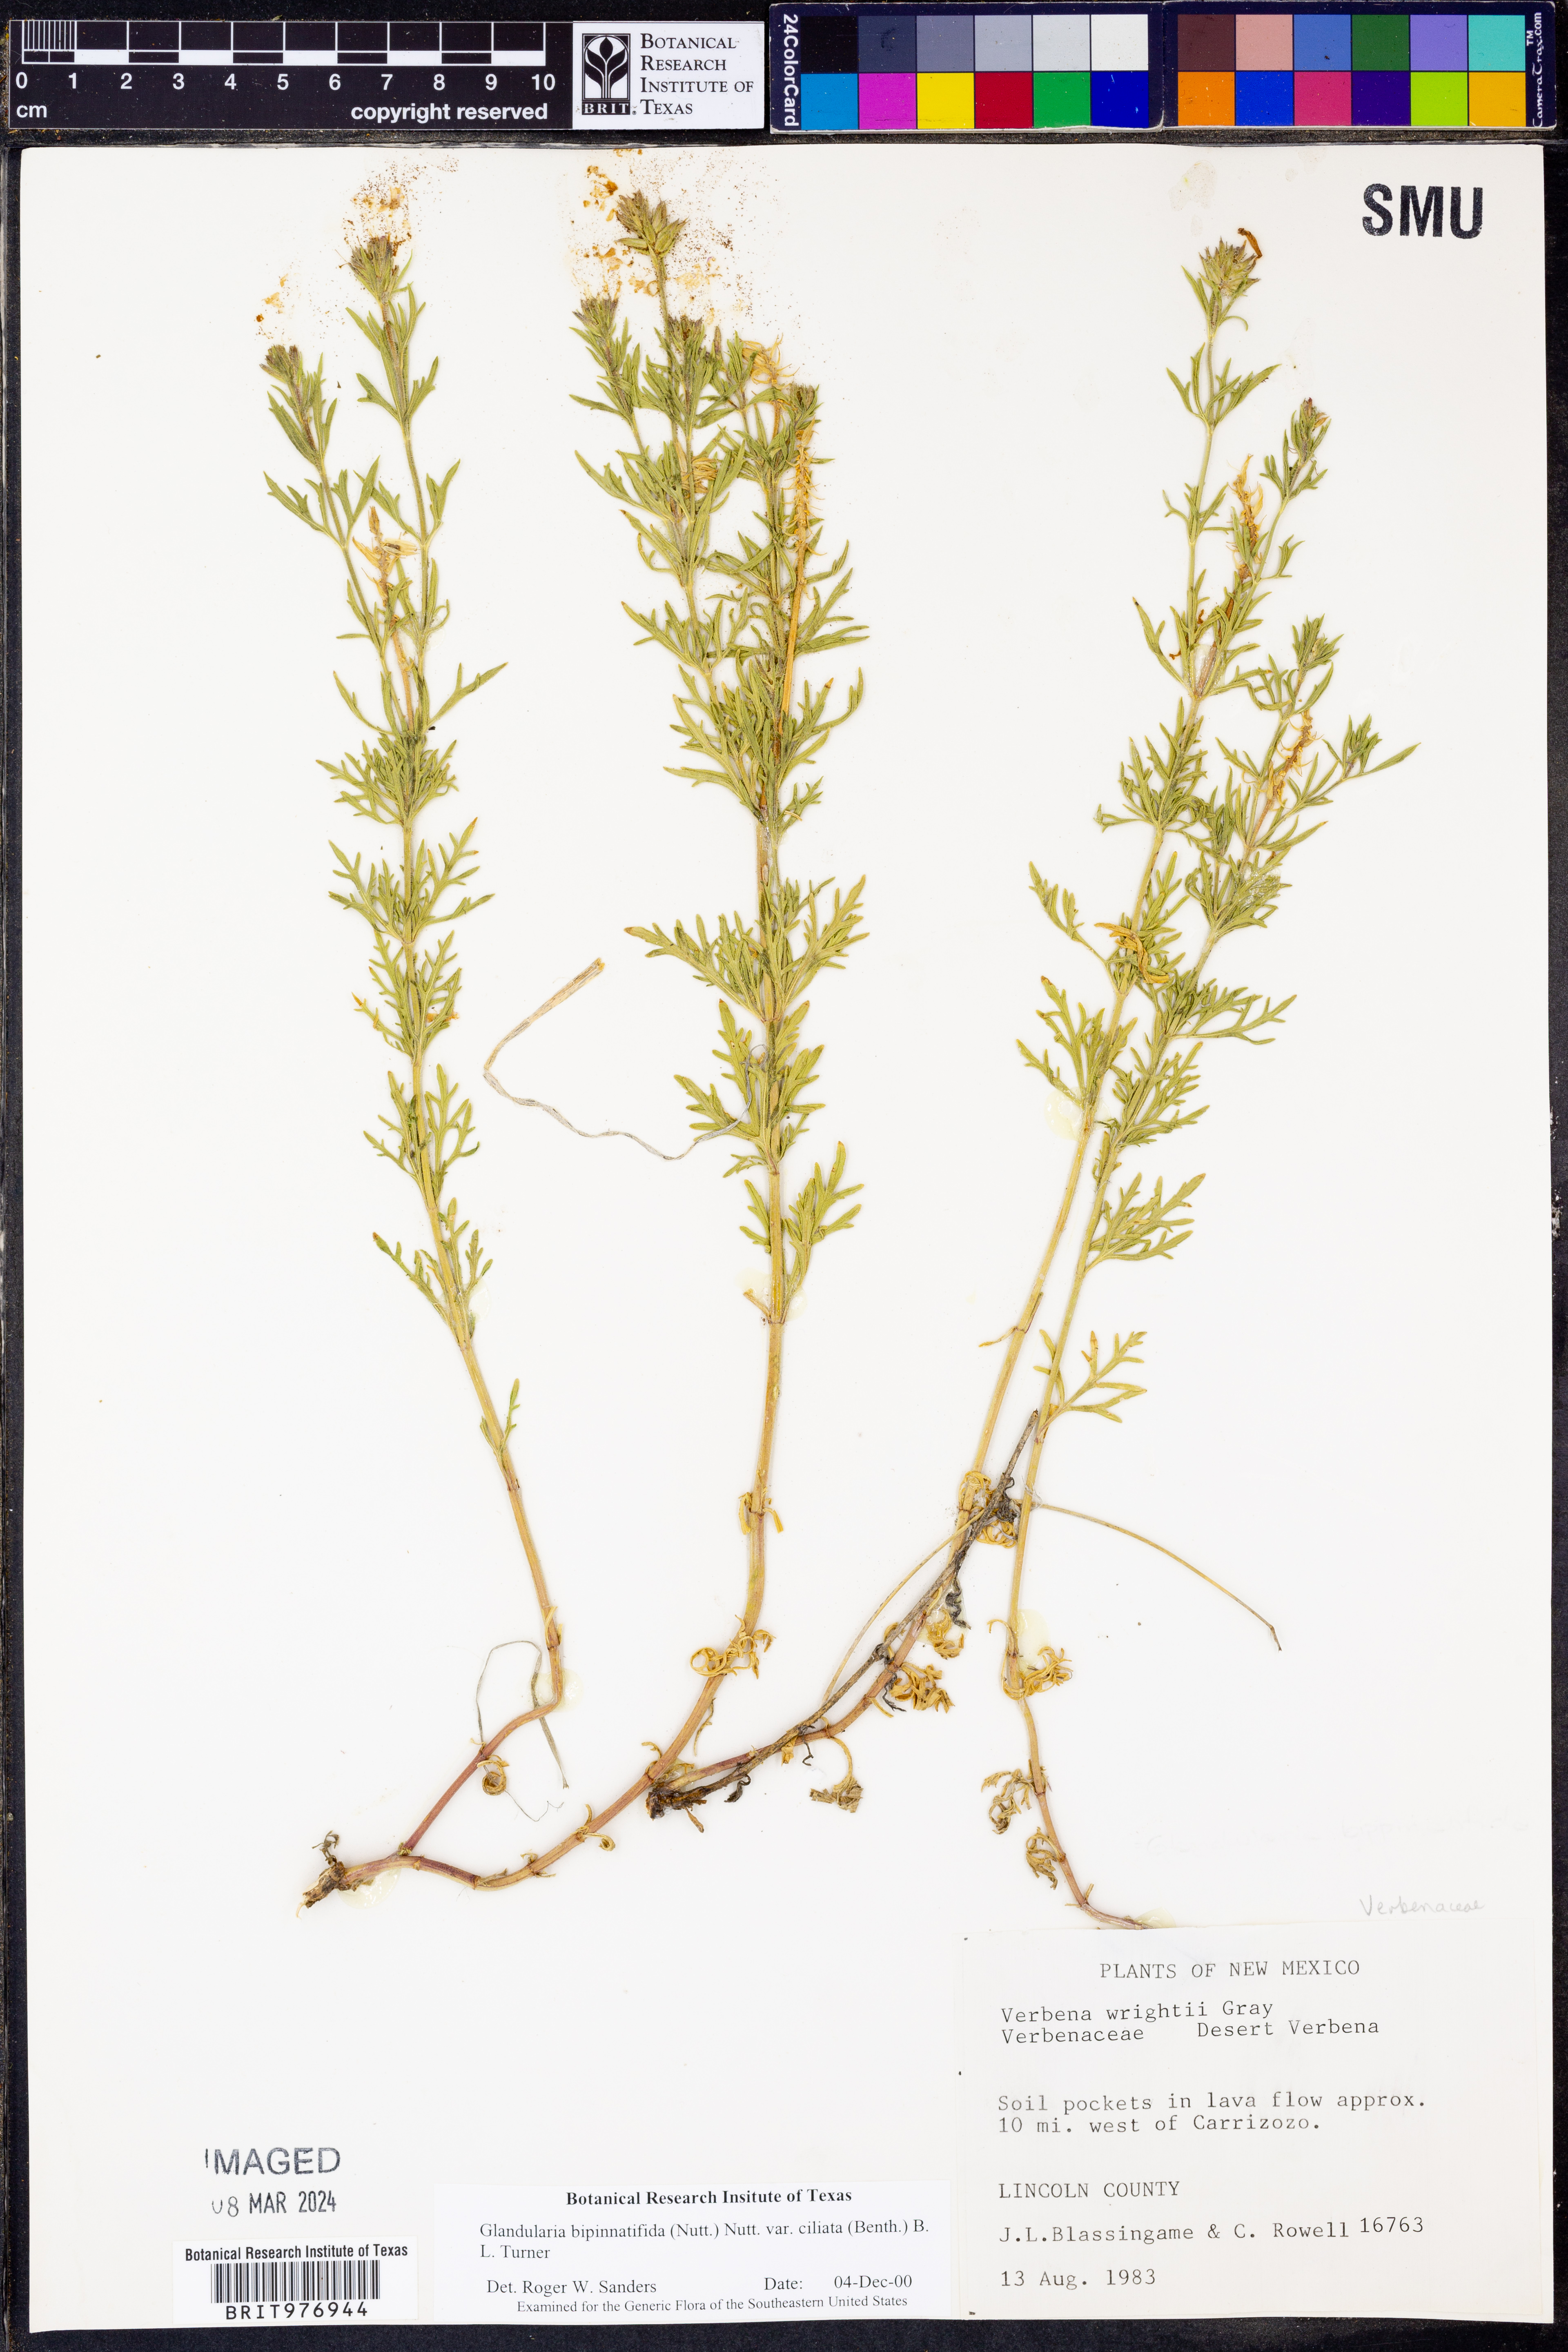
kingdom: Plantae
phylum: Tracheophyta
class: Magnoliopsida
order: Lamiales
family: Verbenaceae
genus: Verbena
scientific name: Verbena bipinnatifida
